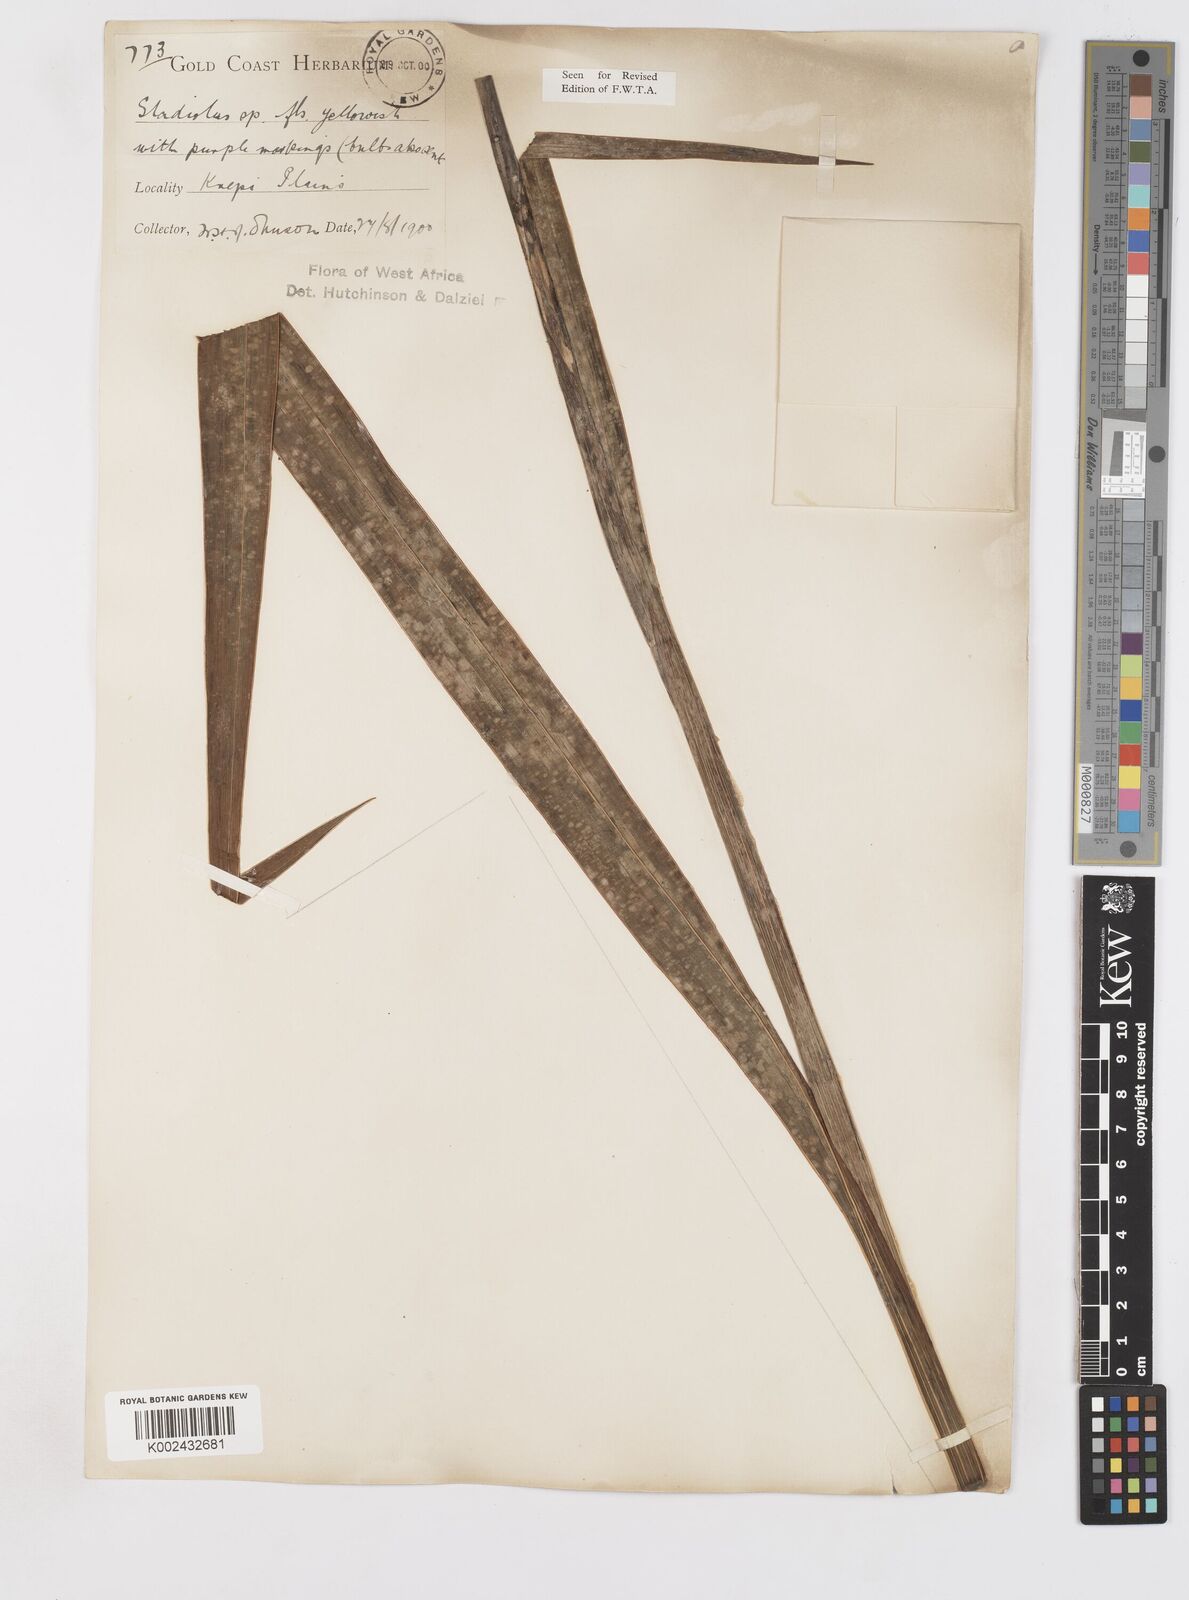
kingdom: Plantae
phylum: Tracheophyta
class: Liliopsida
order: Asparagales
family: Iridaceae
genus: Gladiolus
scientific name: Gladiolus dalenii
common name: Cornflag
